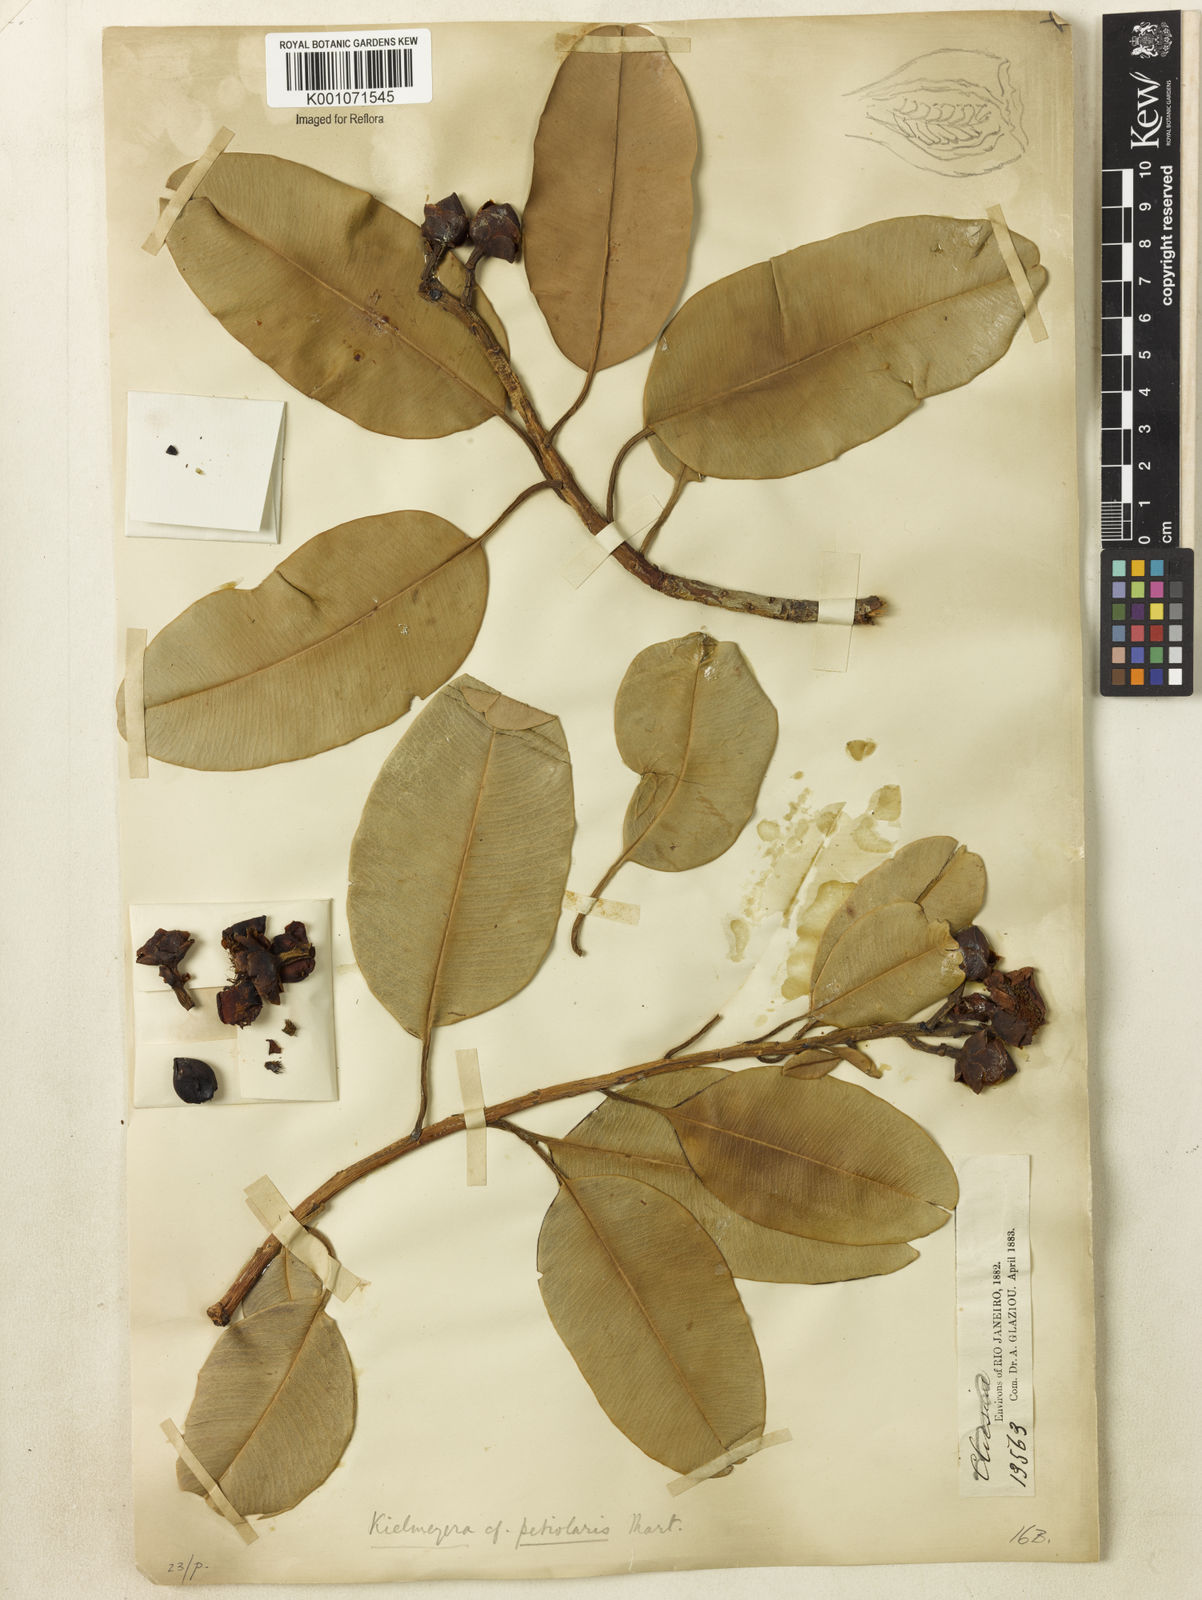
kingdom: Plantae
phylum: Tracheophyta
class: Magnoliopsida
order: Malpighiales
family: Calophyllaceae
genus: Kielmeyera
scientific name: Kielmeyera petiolaris
